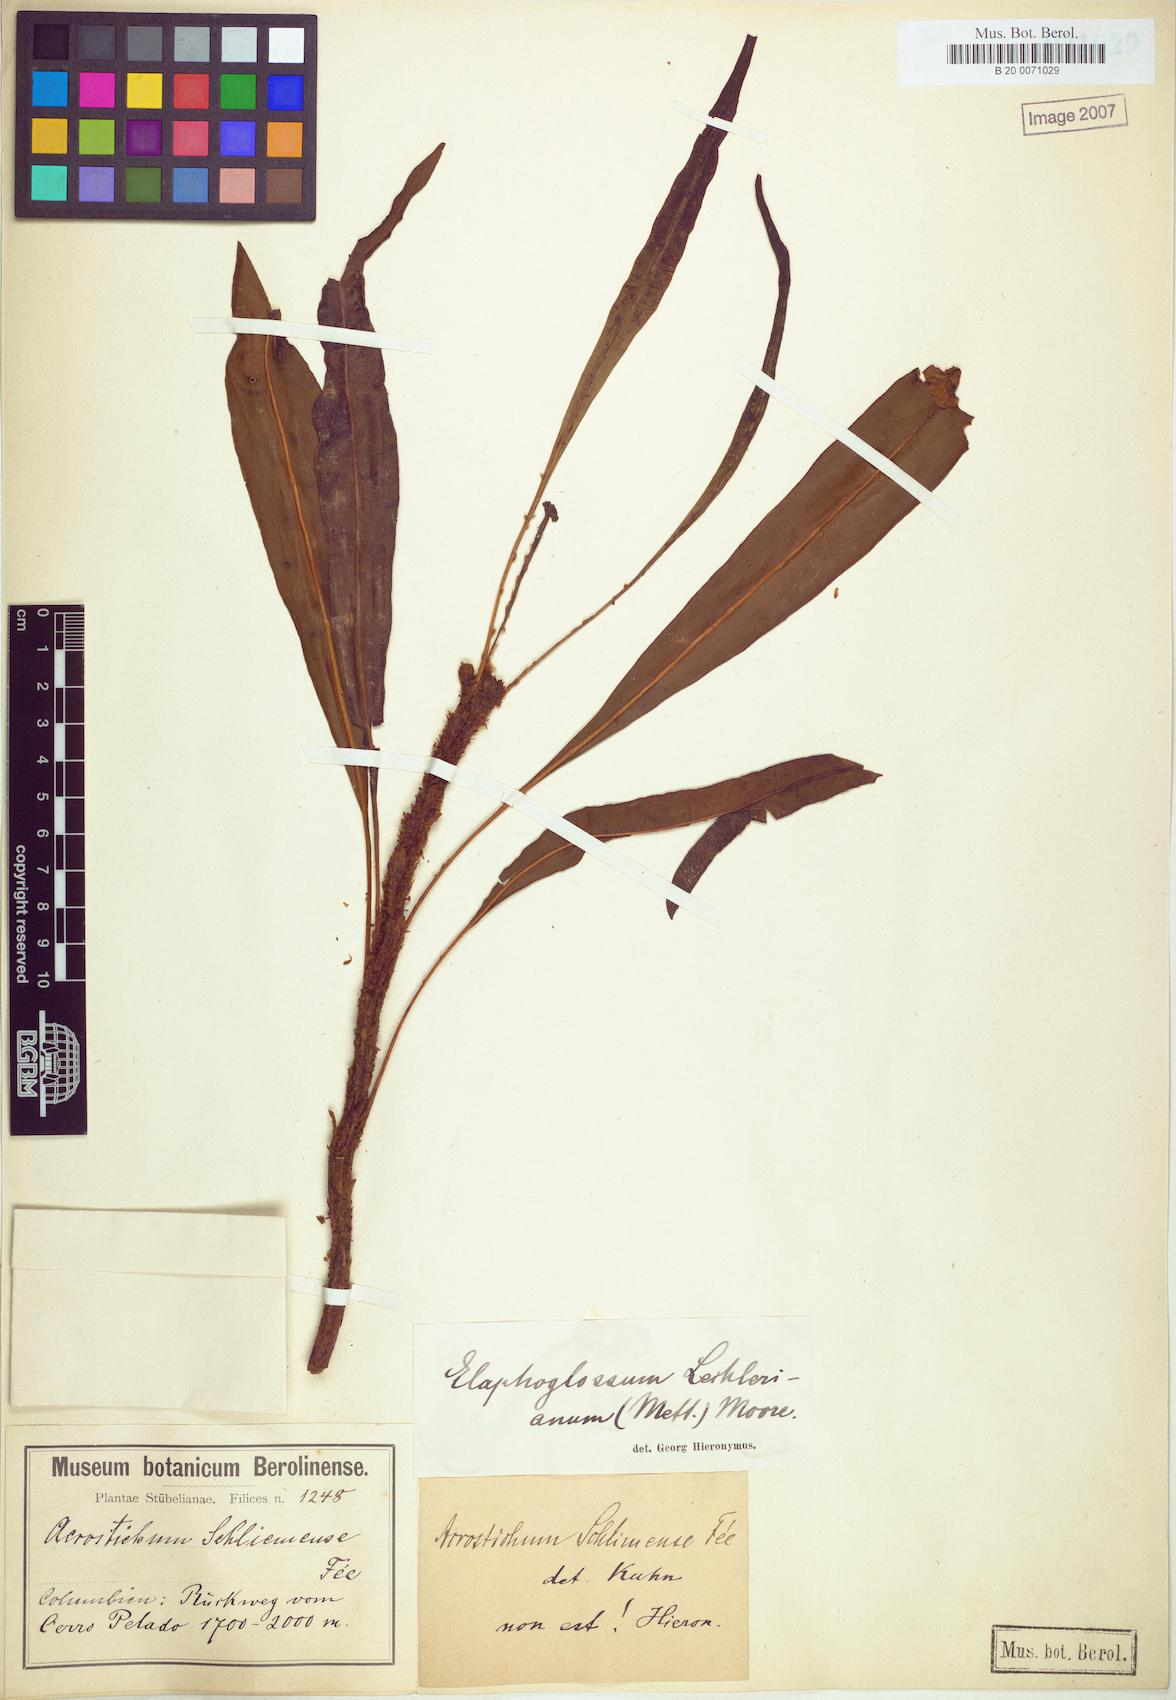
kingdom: Plantae
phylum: Tracheophyta
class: Polypodiopsida
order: Polypodiales
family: Dryopteridaceae
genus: Elaphoglossum
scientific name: Elaphoglossum lechlerianum
